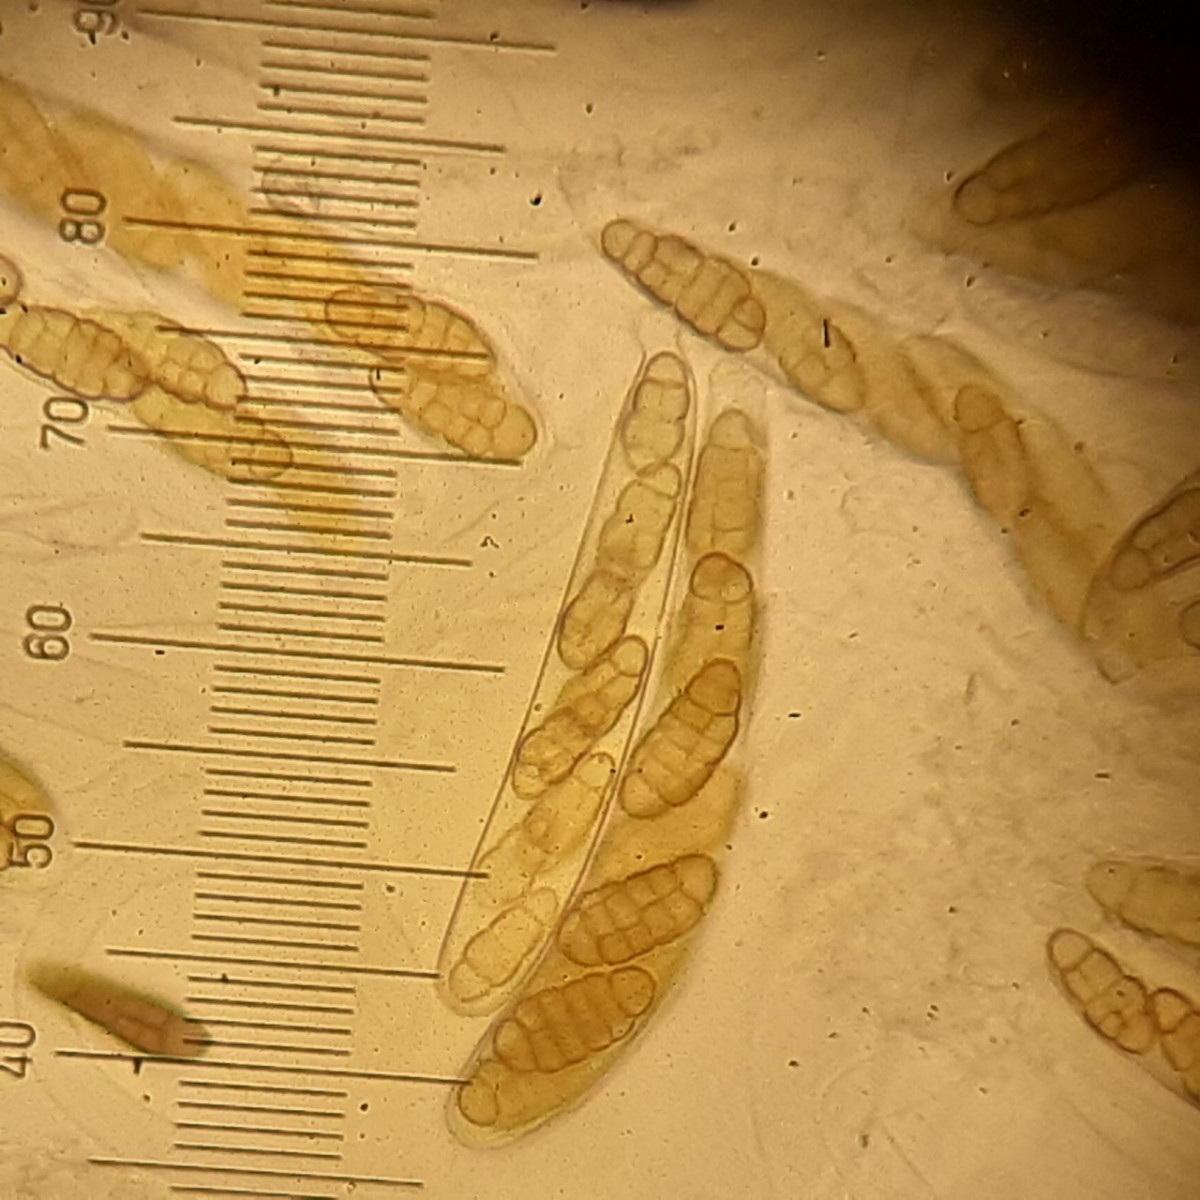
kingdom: Fungi
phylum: Ascomycota
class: Dothideomycetes
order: Pleosporales
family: Pleosporaceae
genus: Stemphylium
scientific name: Stemphylium vesicarium
